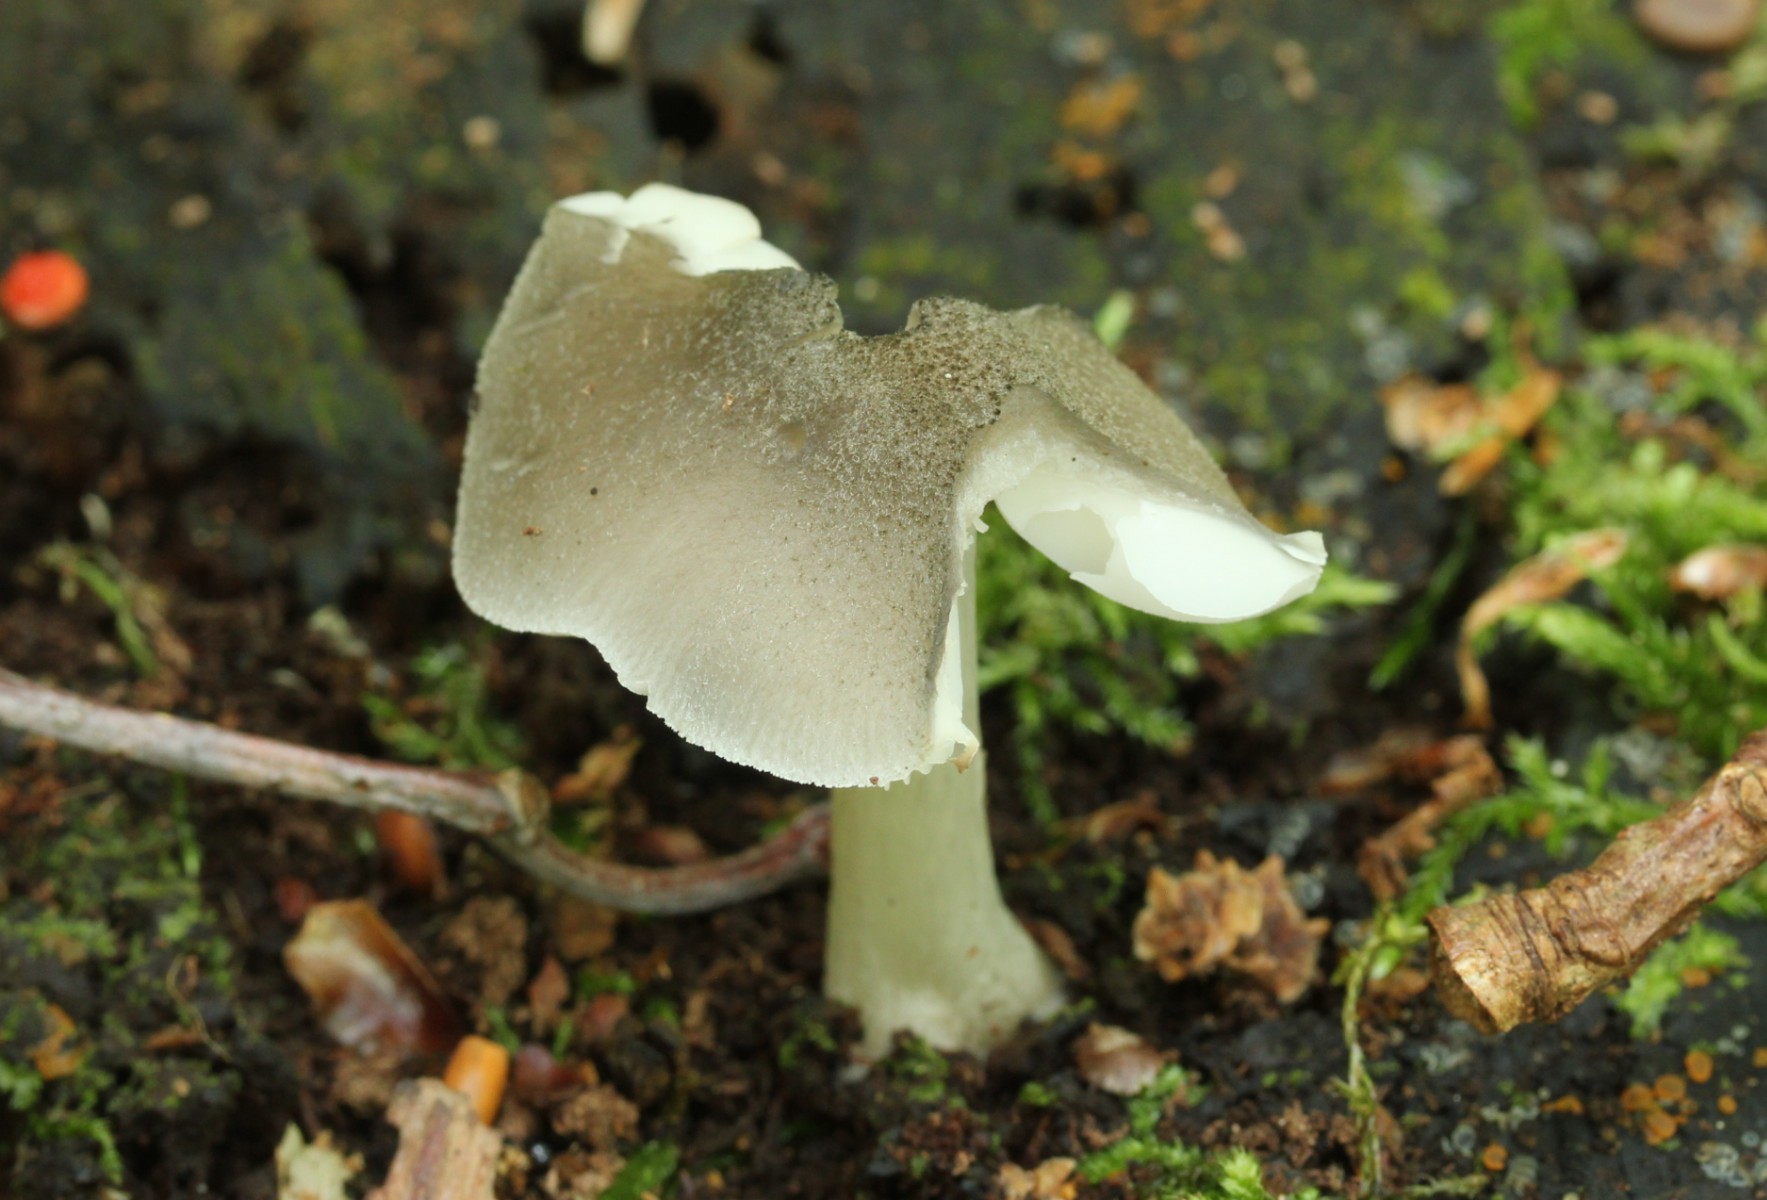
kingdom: Fungi
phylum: Basidiomycota
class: Agaricomycetes
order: Agaricales
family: Pluteaceae
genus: Pluteus
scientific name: Pluteus salicinus
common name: stiv skærmhat
